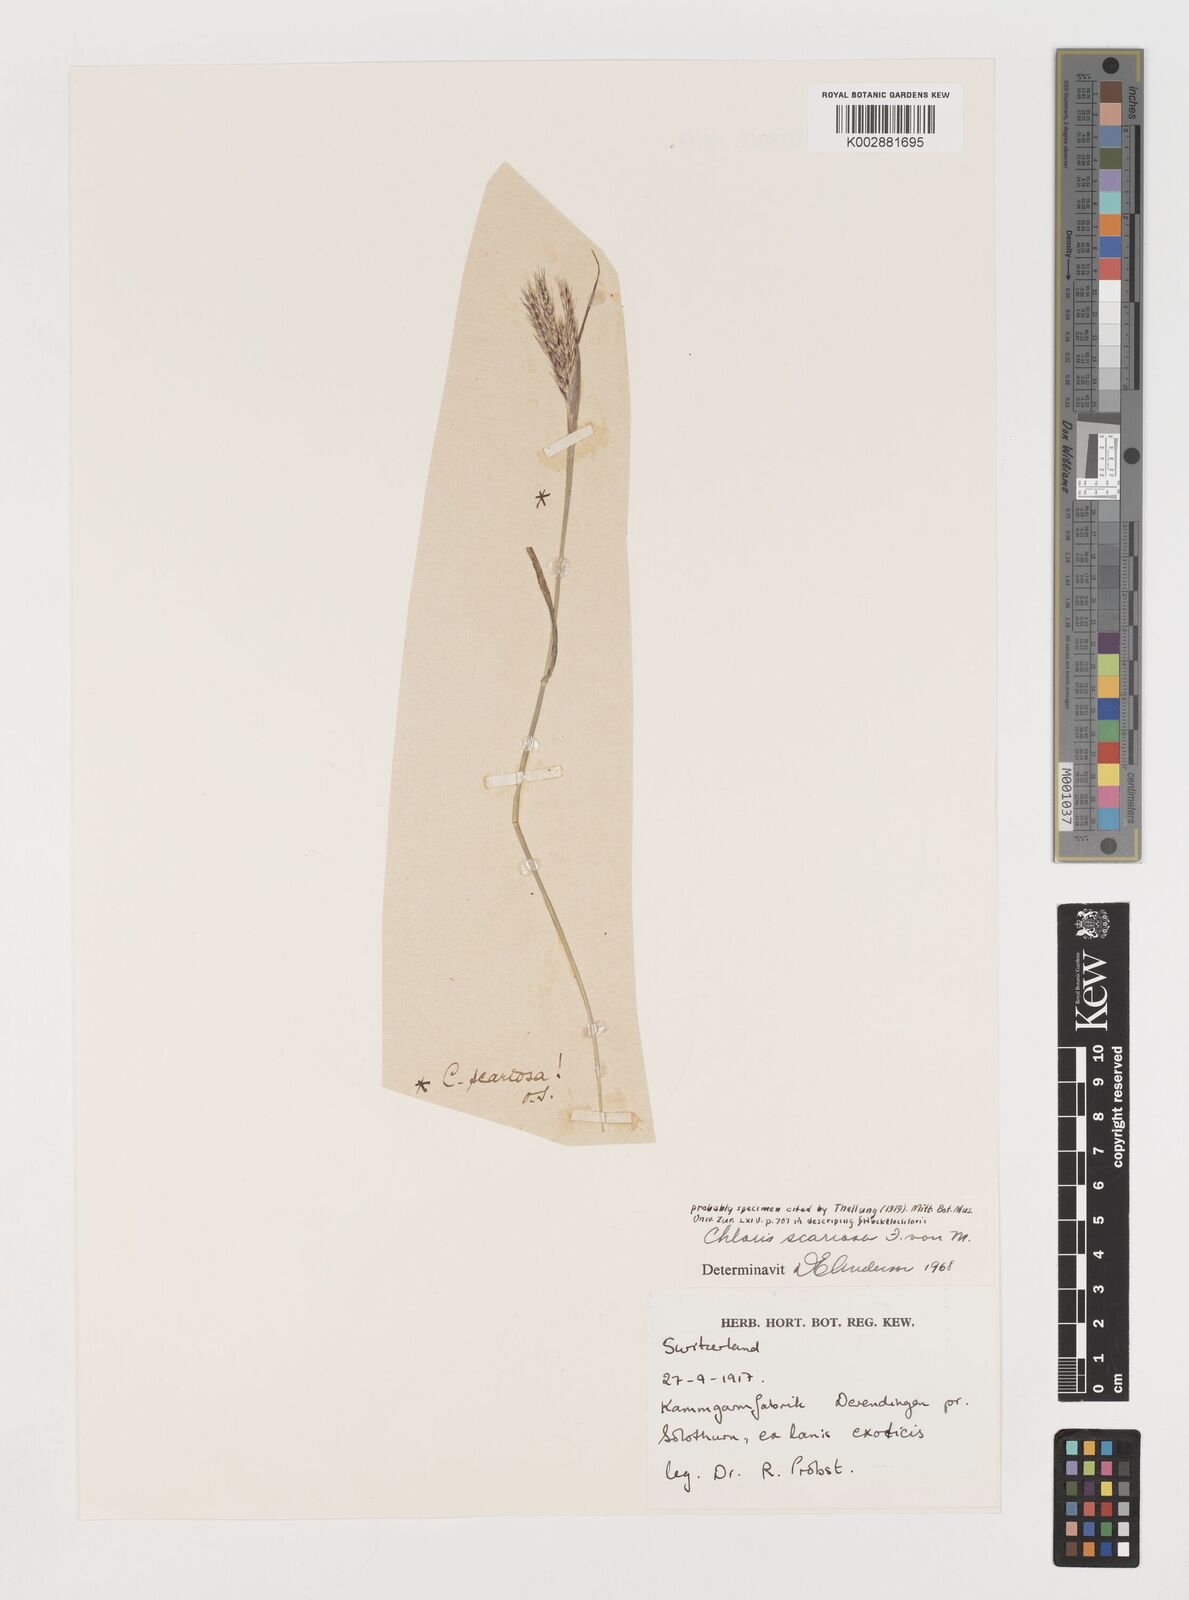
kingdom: Plantae
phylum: Tracheophyta
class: Liliopsida
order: Poales
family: Poaceae
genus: Oxychloris
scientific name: Oxychloris scariosa
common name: Winged windmill grass
